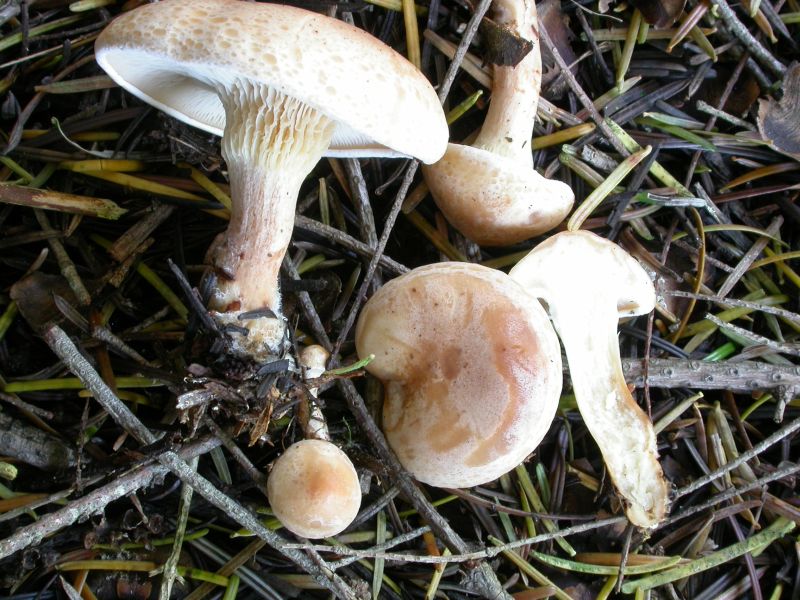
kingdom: Fungi
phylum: Basidiomycota
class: Agaricomycetes
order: Agaricales
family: Tricholomataceae
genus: Paralepista
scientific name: Paralepista gilva
